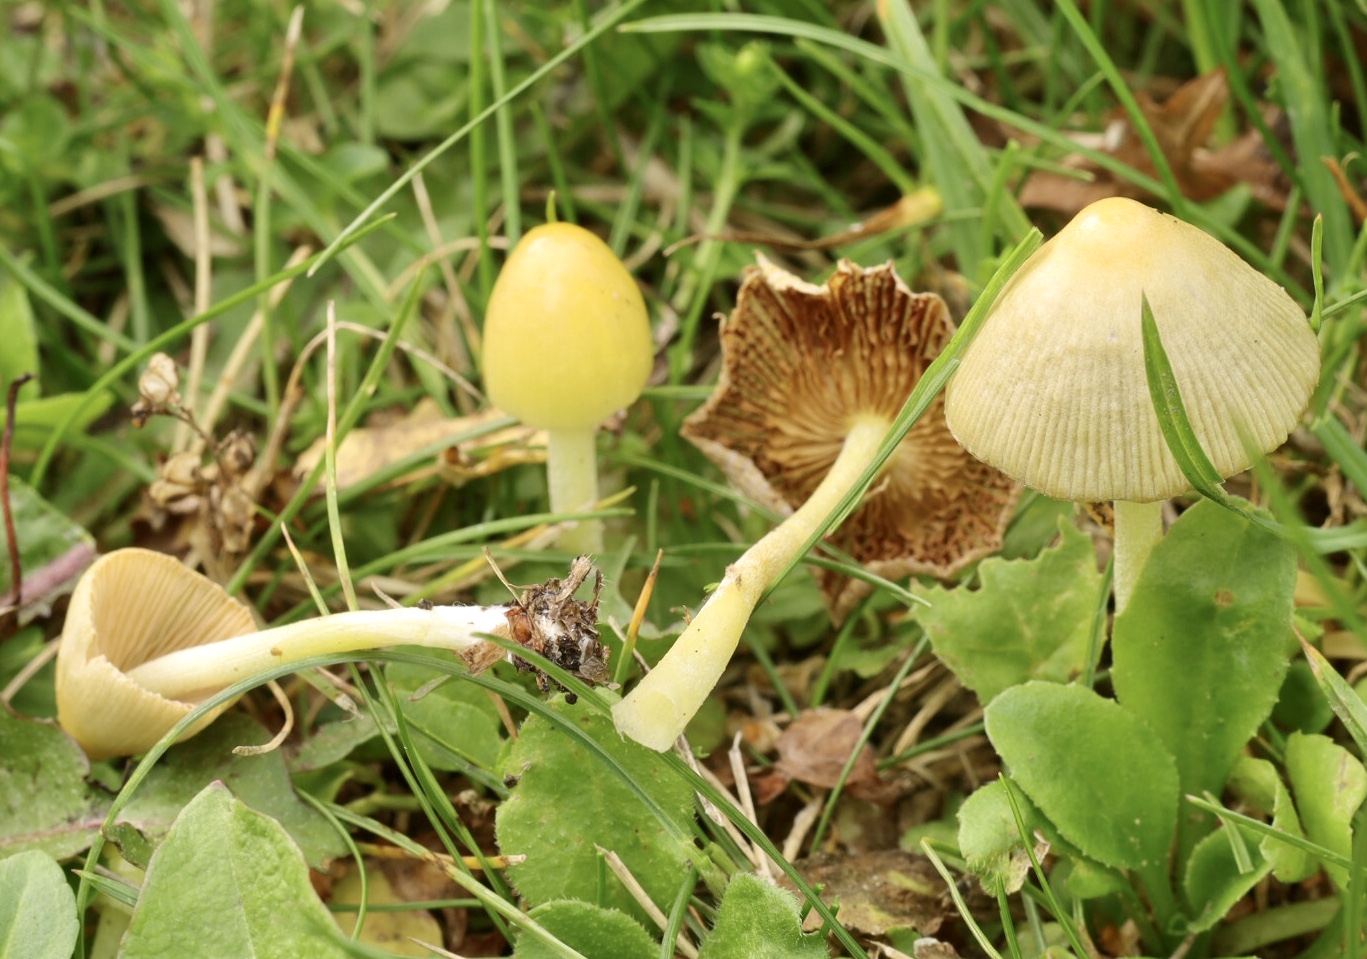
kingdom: Fungi
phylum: Basidiomycota
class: Agaricomycetes
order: Agaricales
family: Bolbitiaceae
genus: Bolbitius
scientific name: Bolbitius titubans
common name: almindelig gulhat
